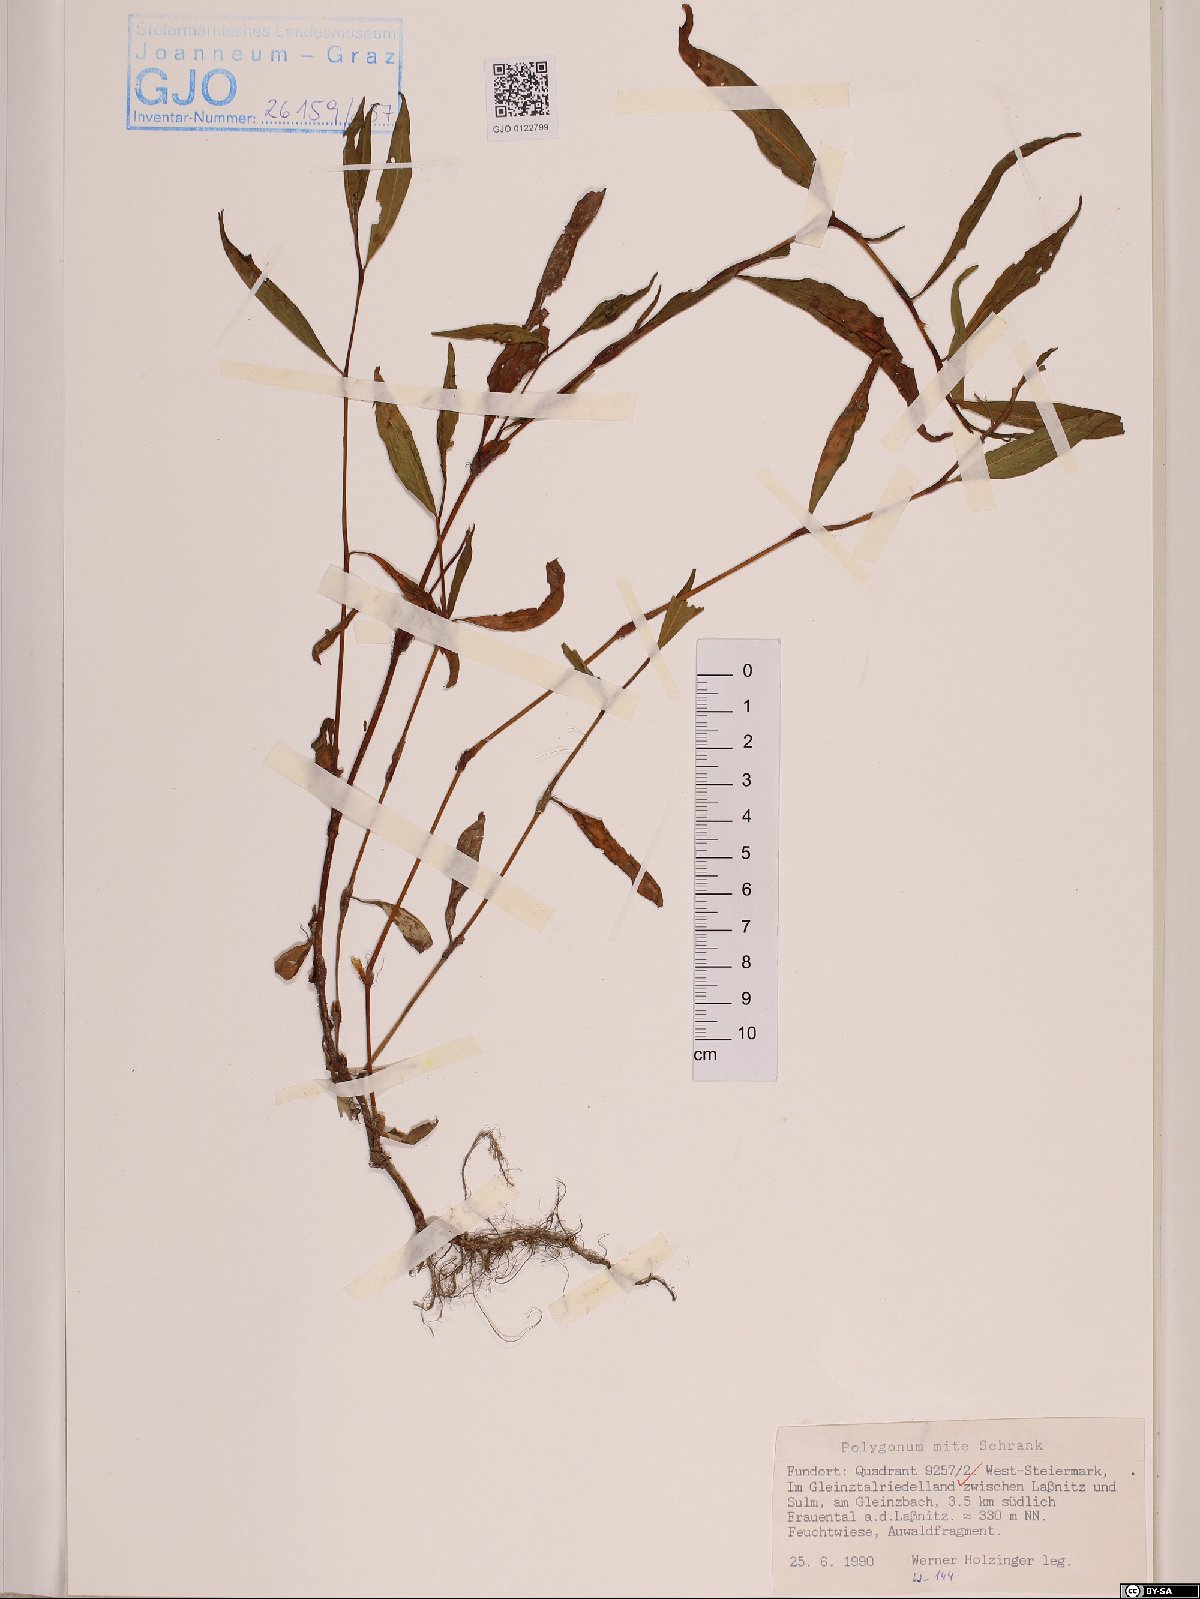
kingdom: Plantae
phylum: Tracheophyta
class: Magnoliopsida
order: Caryophyllales
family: Polygonaceae
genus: Persicaria
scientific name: Persicaria mitis
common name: Tasteless water-pepper
